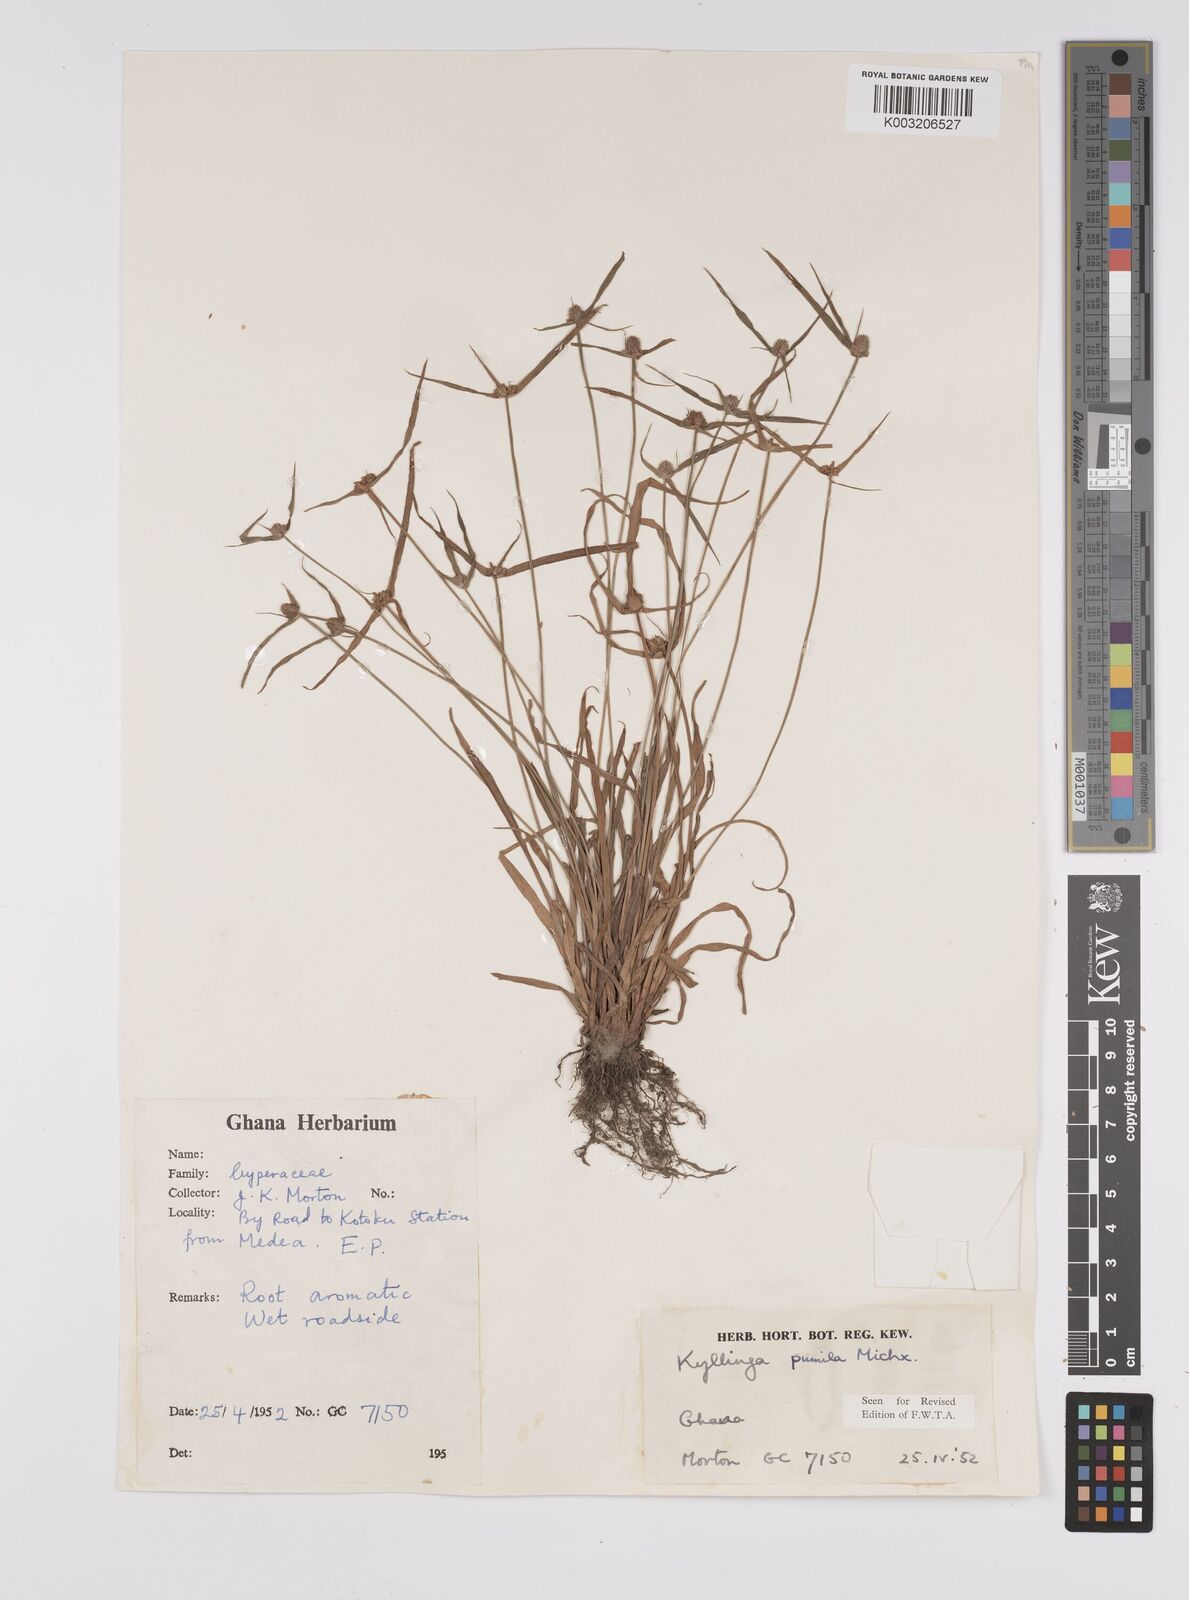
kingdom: Plantae
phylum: Tracheophyta
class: Liliopsida
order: Poales
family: Cyperaceae
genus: Cyperus
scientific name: Cyperus
